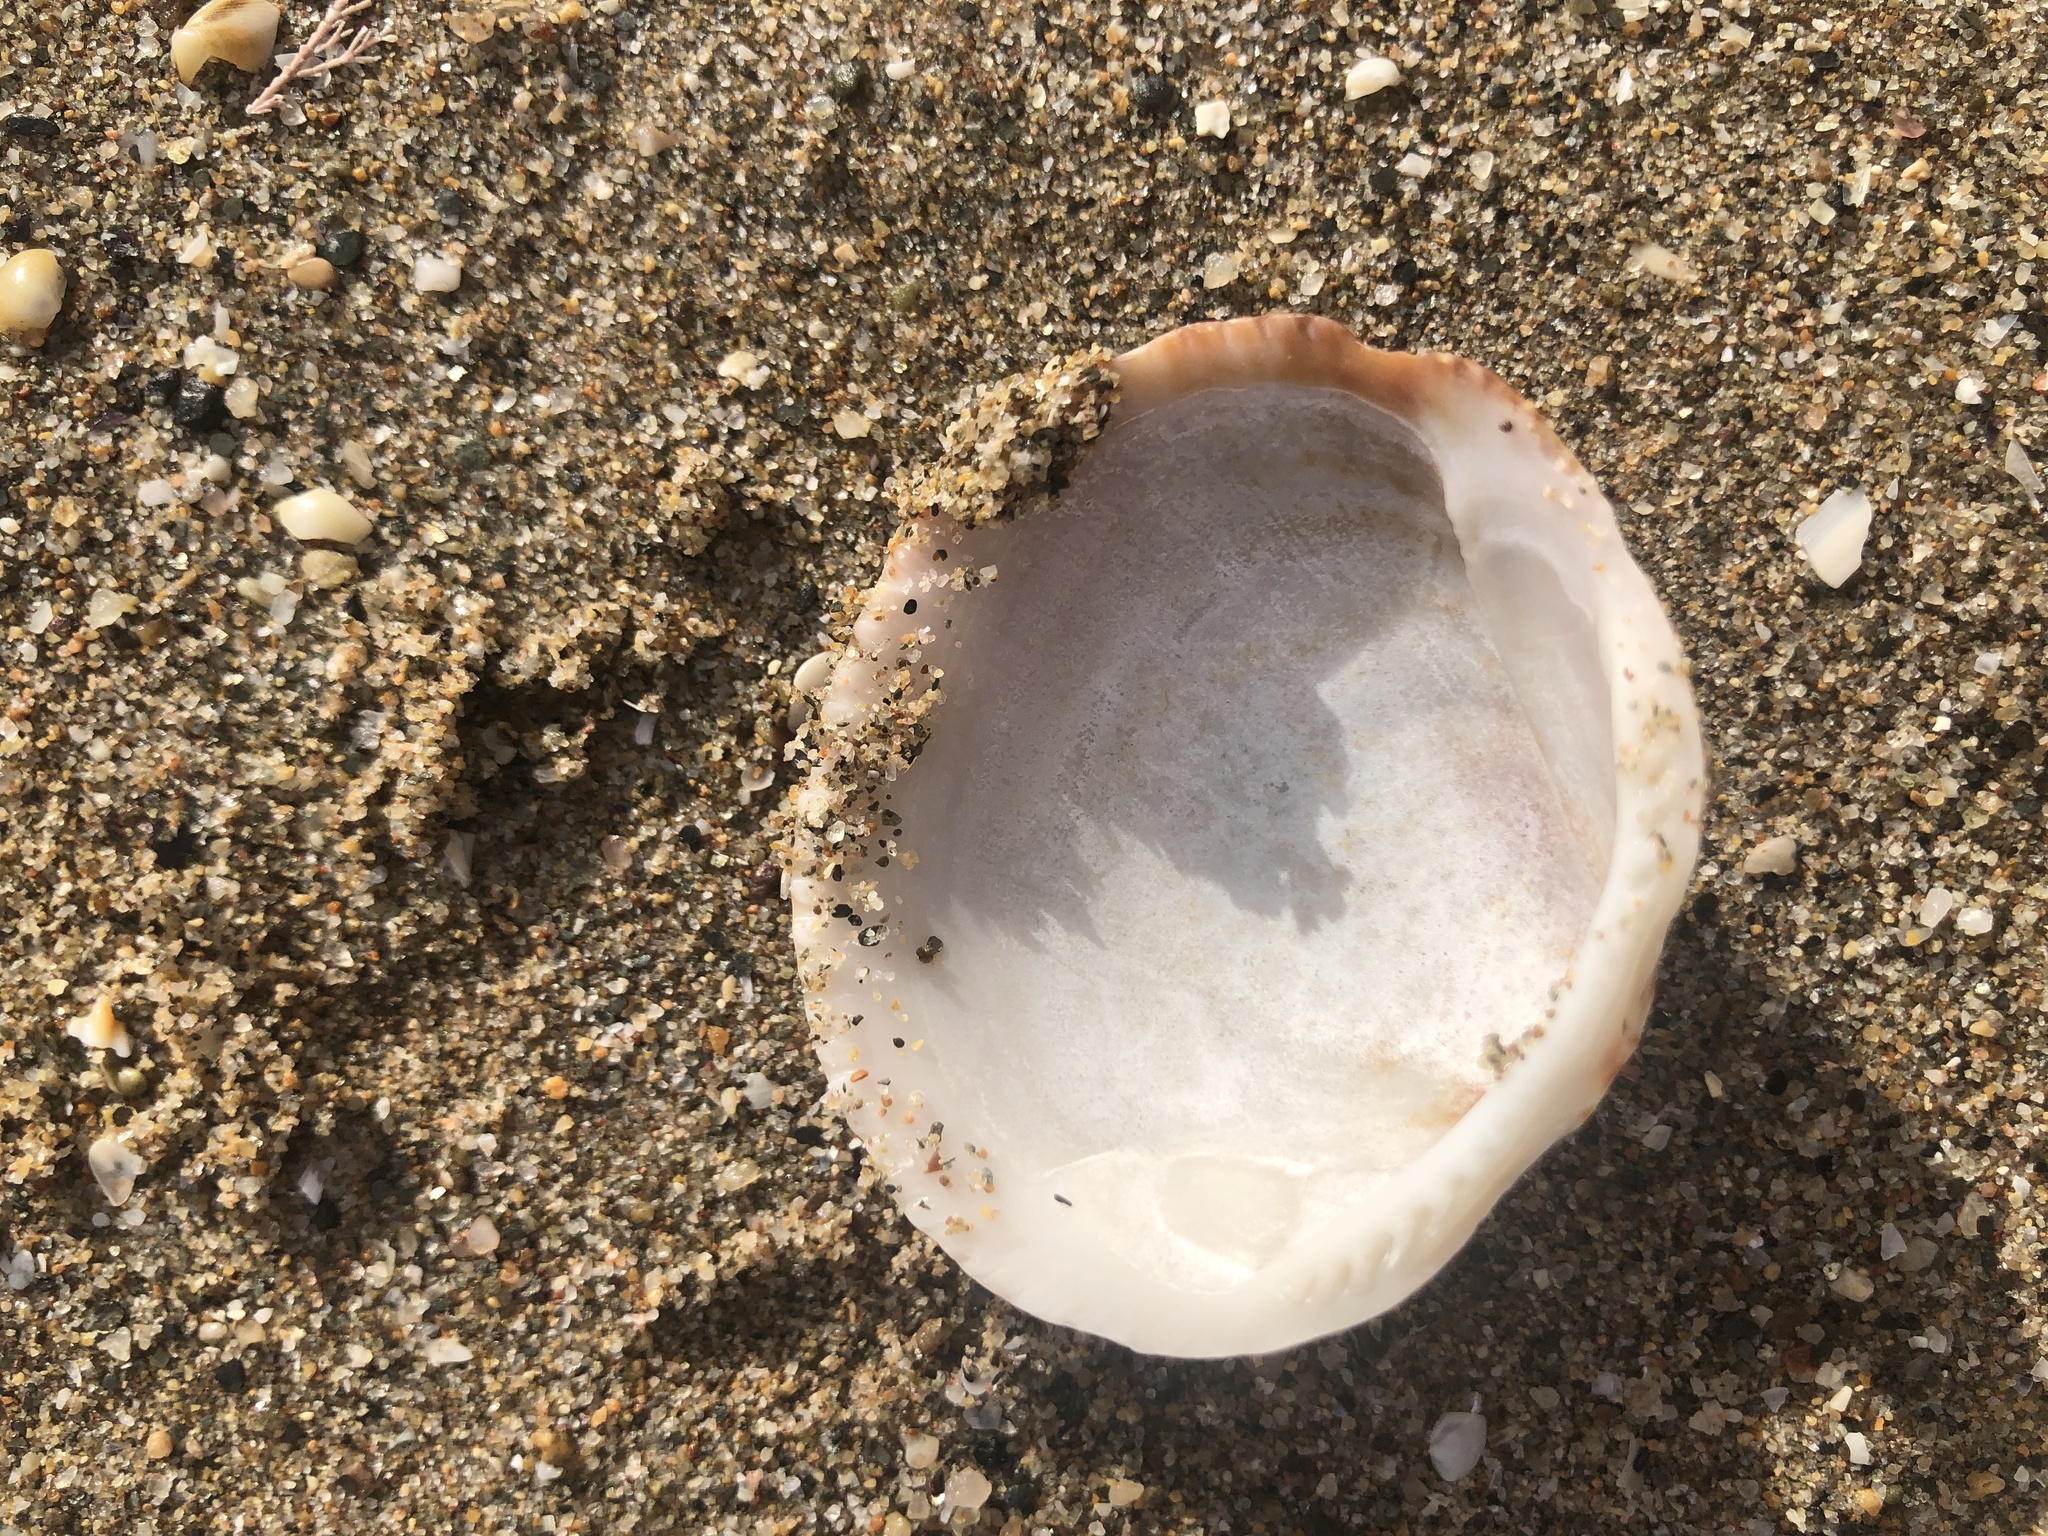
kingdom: Animalia
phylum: Mollusca
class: Bivalvia
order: Arcida
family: Glycymerididae
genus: Glycymeris
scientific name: Glycymeris nummaria
